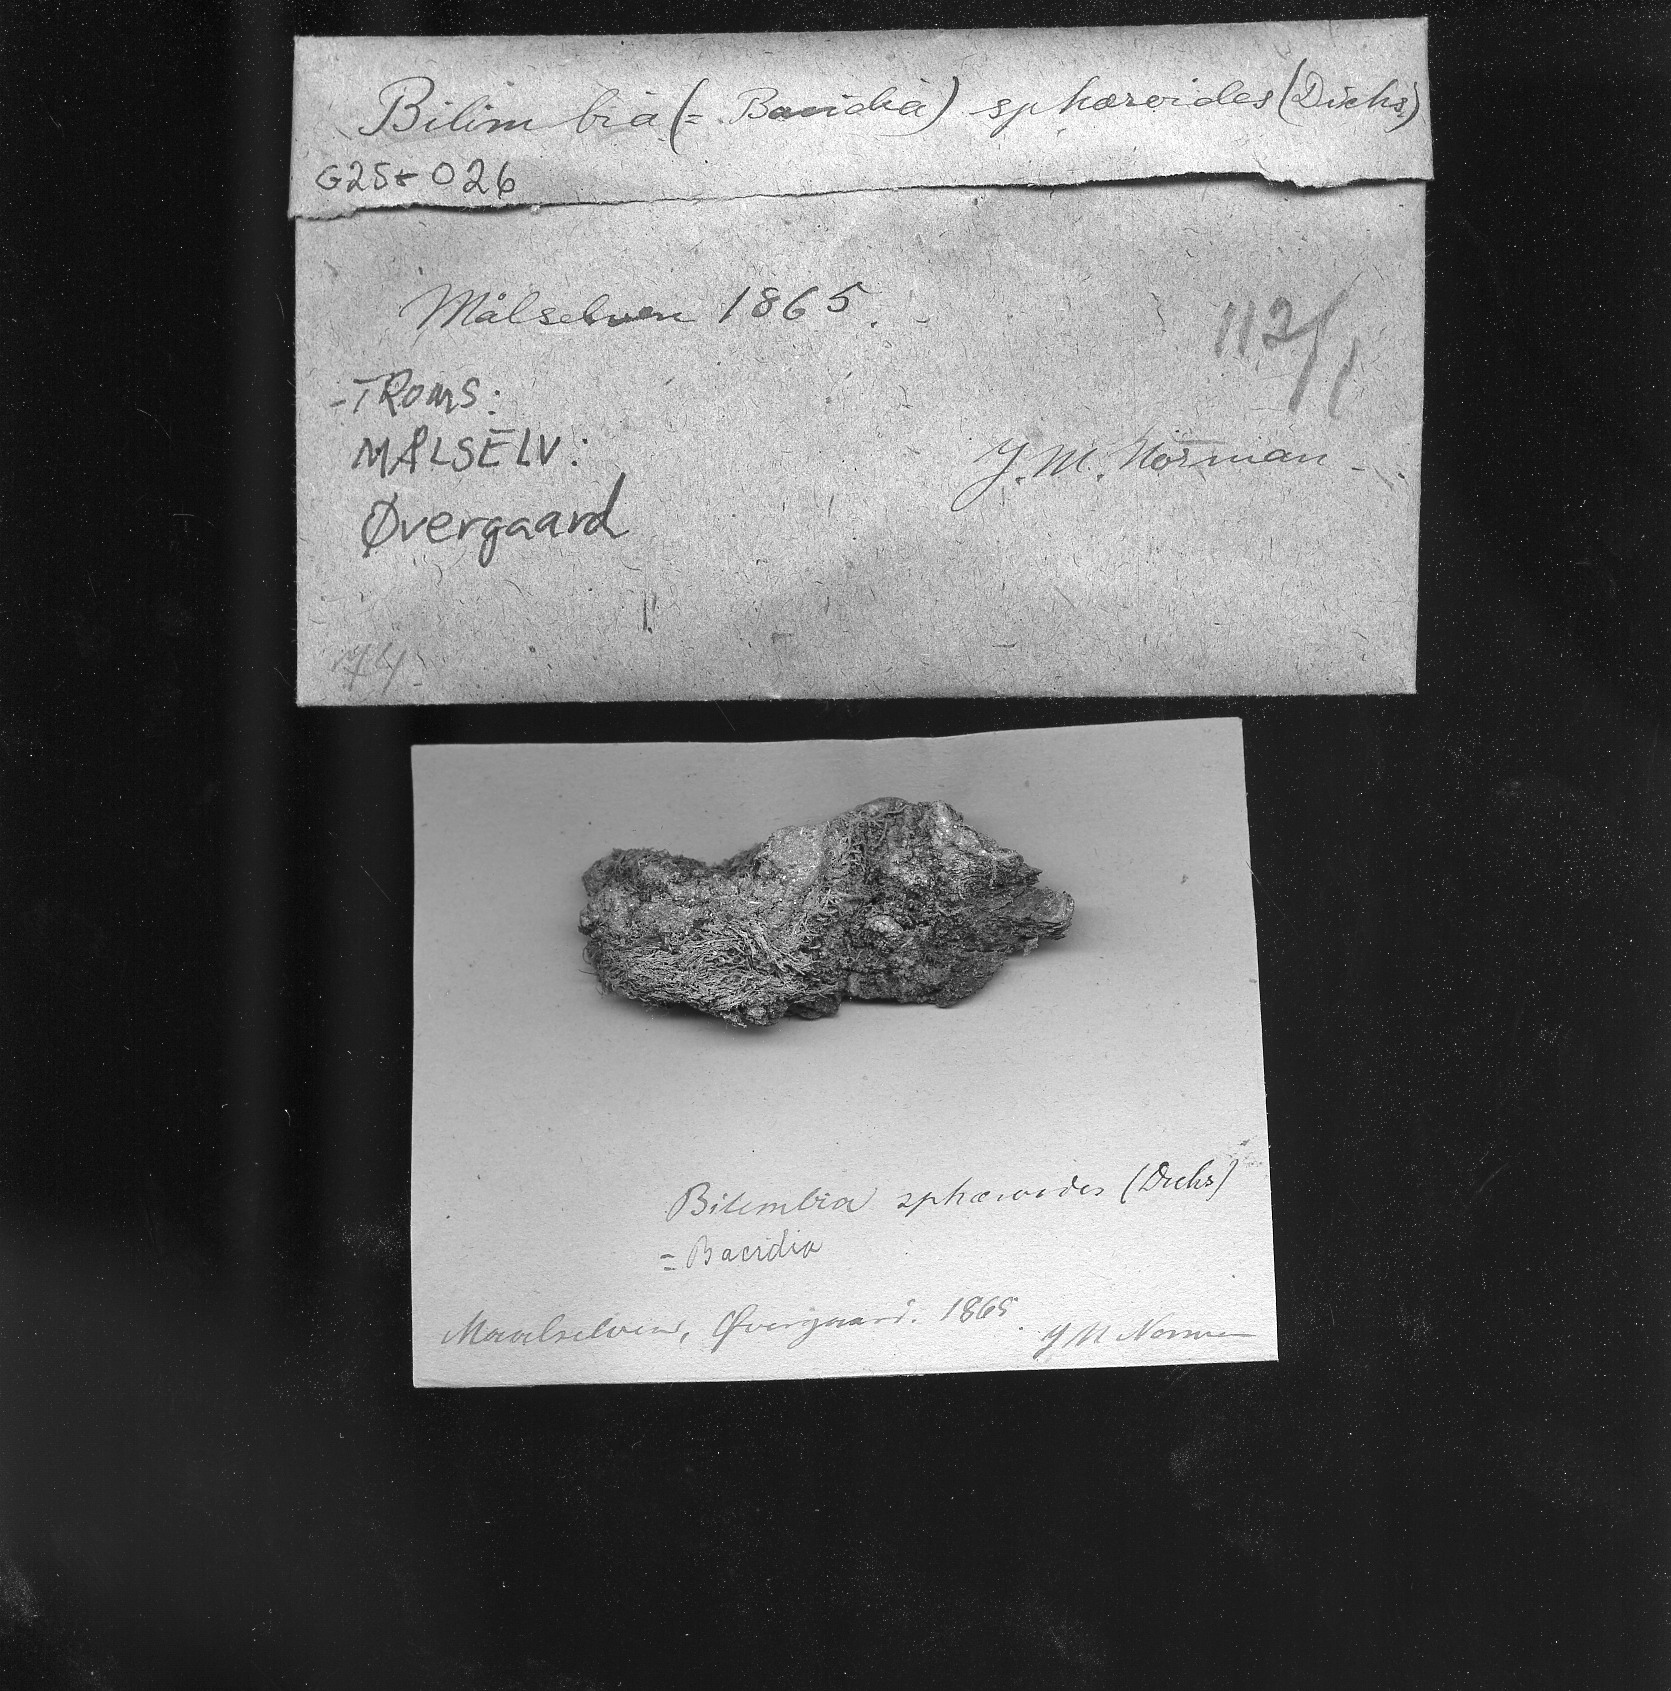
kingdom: Fungi
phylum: Ascomycota
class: Lecanoromycetes
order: Lecanorales
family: Ramalinaceae
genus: Mycobilimbia
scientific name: Mycobilimbia sphaeroides
